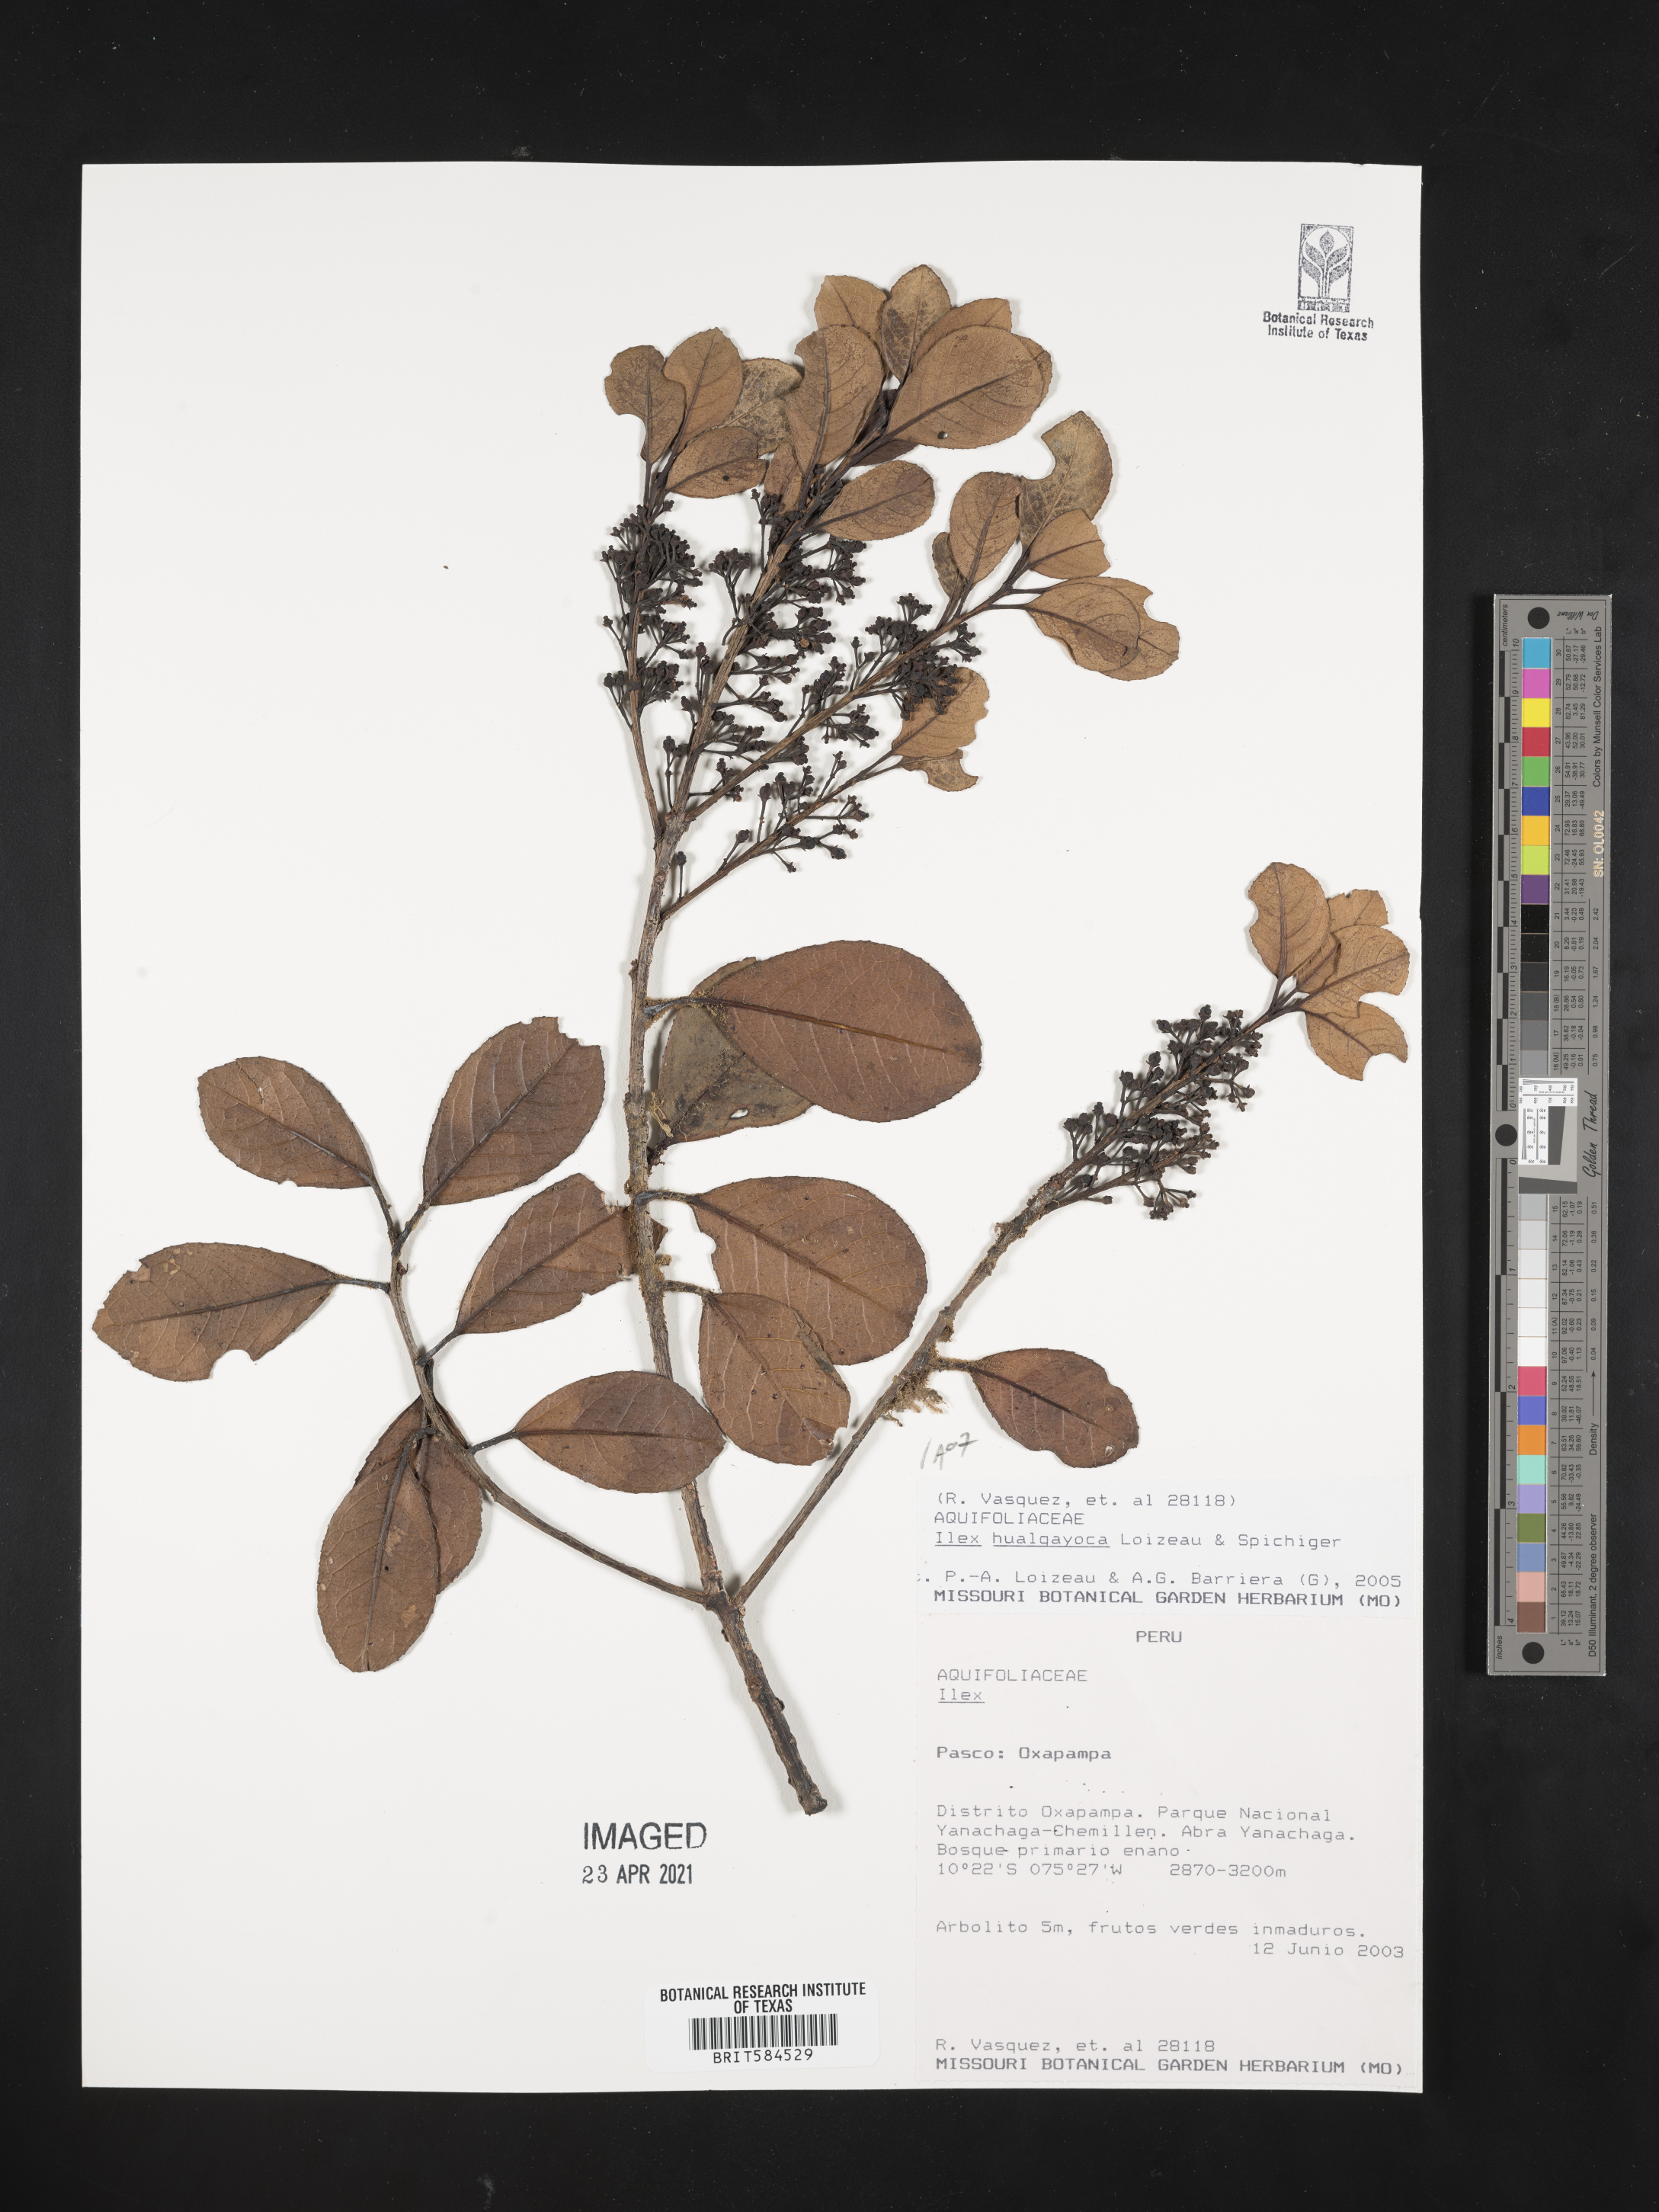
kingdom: Plantae
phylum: Tracheophyta
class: Magnoliopsida
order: Aquifoliales
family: Aquifoliaceae
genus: Ilex
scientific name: Ilex hualgayoca
